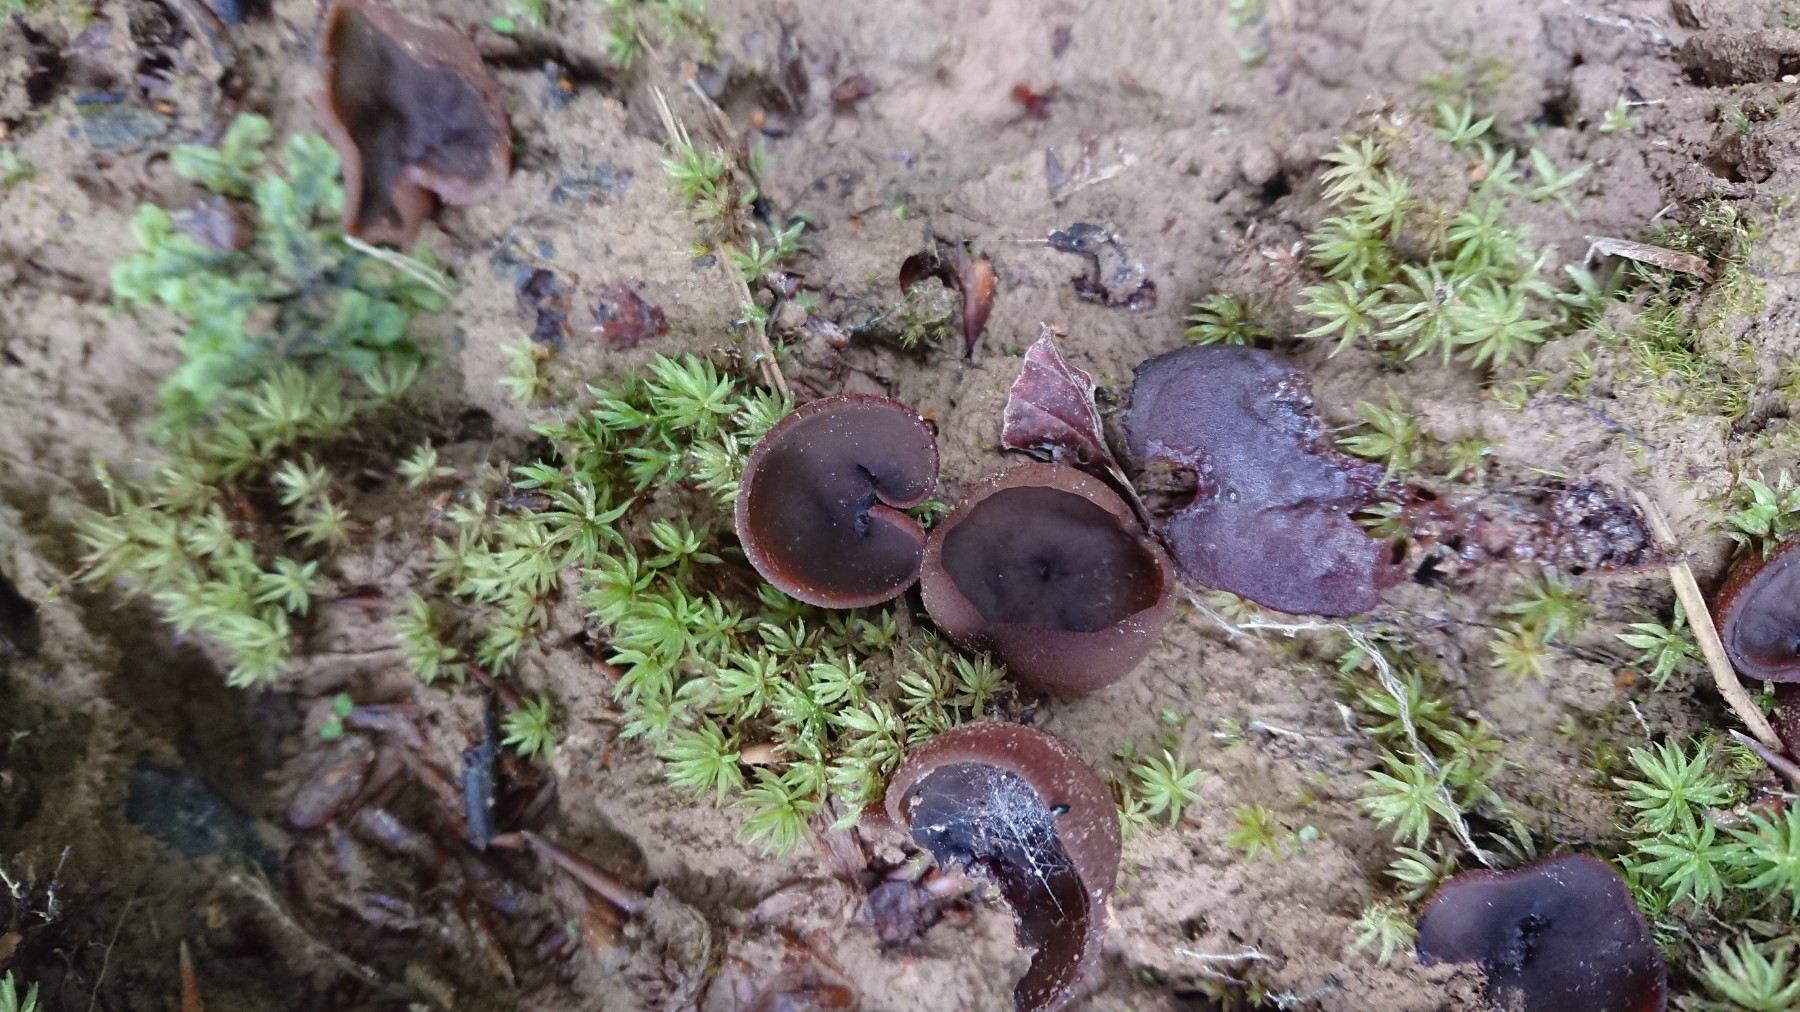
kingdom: Fungi
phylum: Ascomycota
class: Pezizomycetes
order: Pezizales
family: Pezizaceae
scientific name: Pezizaceae
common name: bægersvampfamilien
